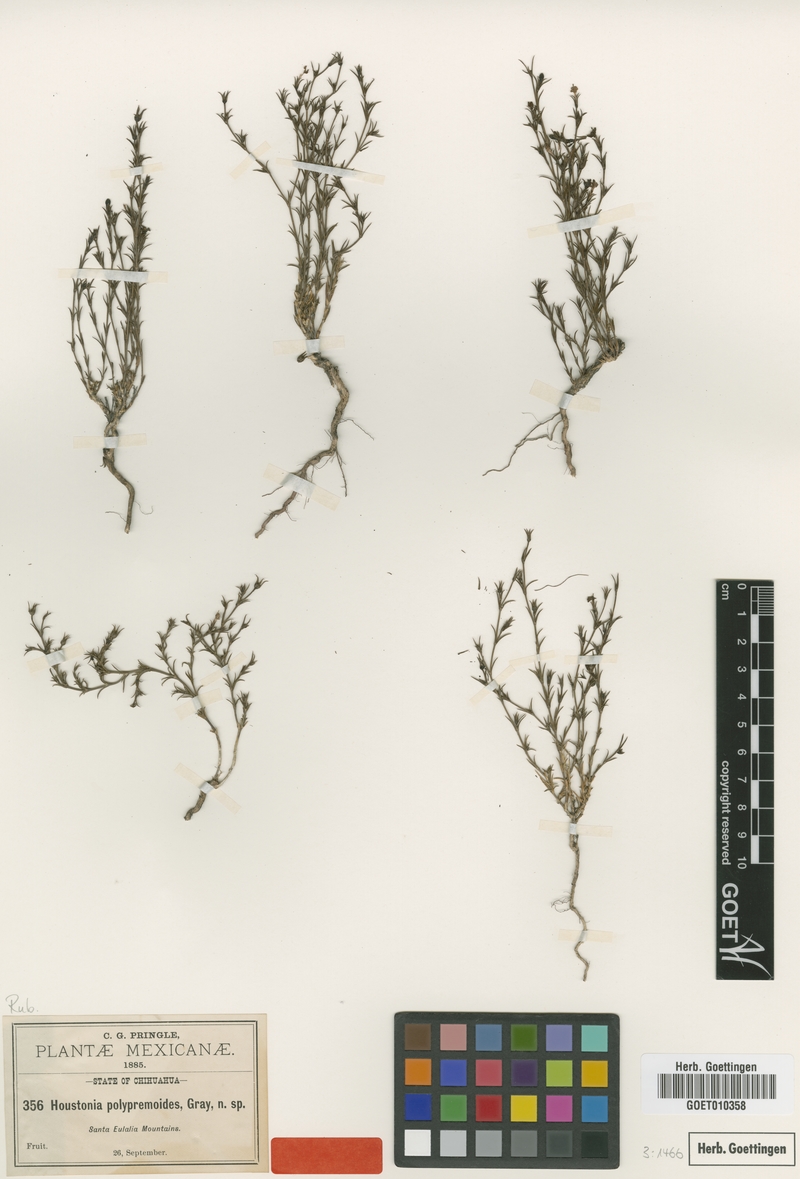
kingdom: Plantae
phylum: Tracheophyta
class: Magnoliopsida
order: Gentianales
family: Rubiaceae
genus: Houstonia
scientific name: Houstonia acerosa
